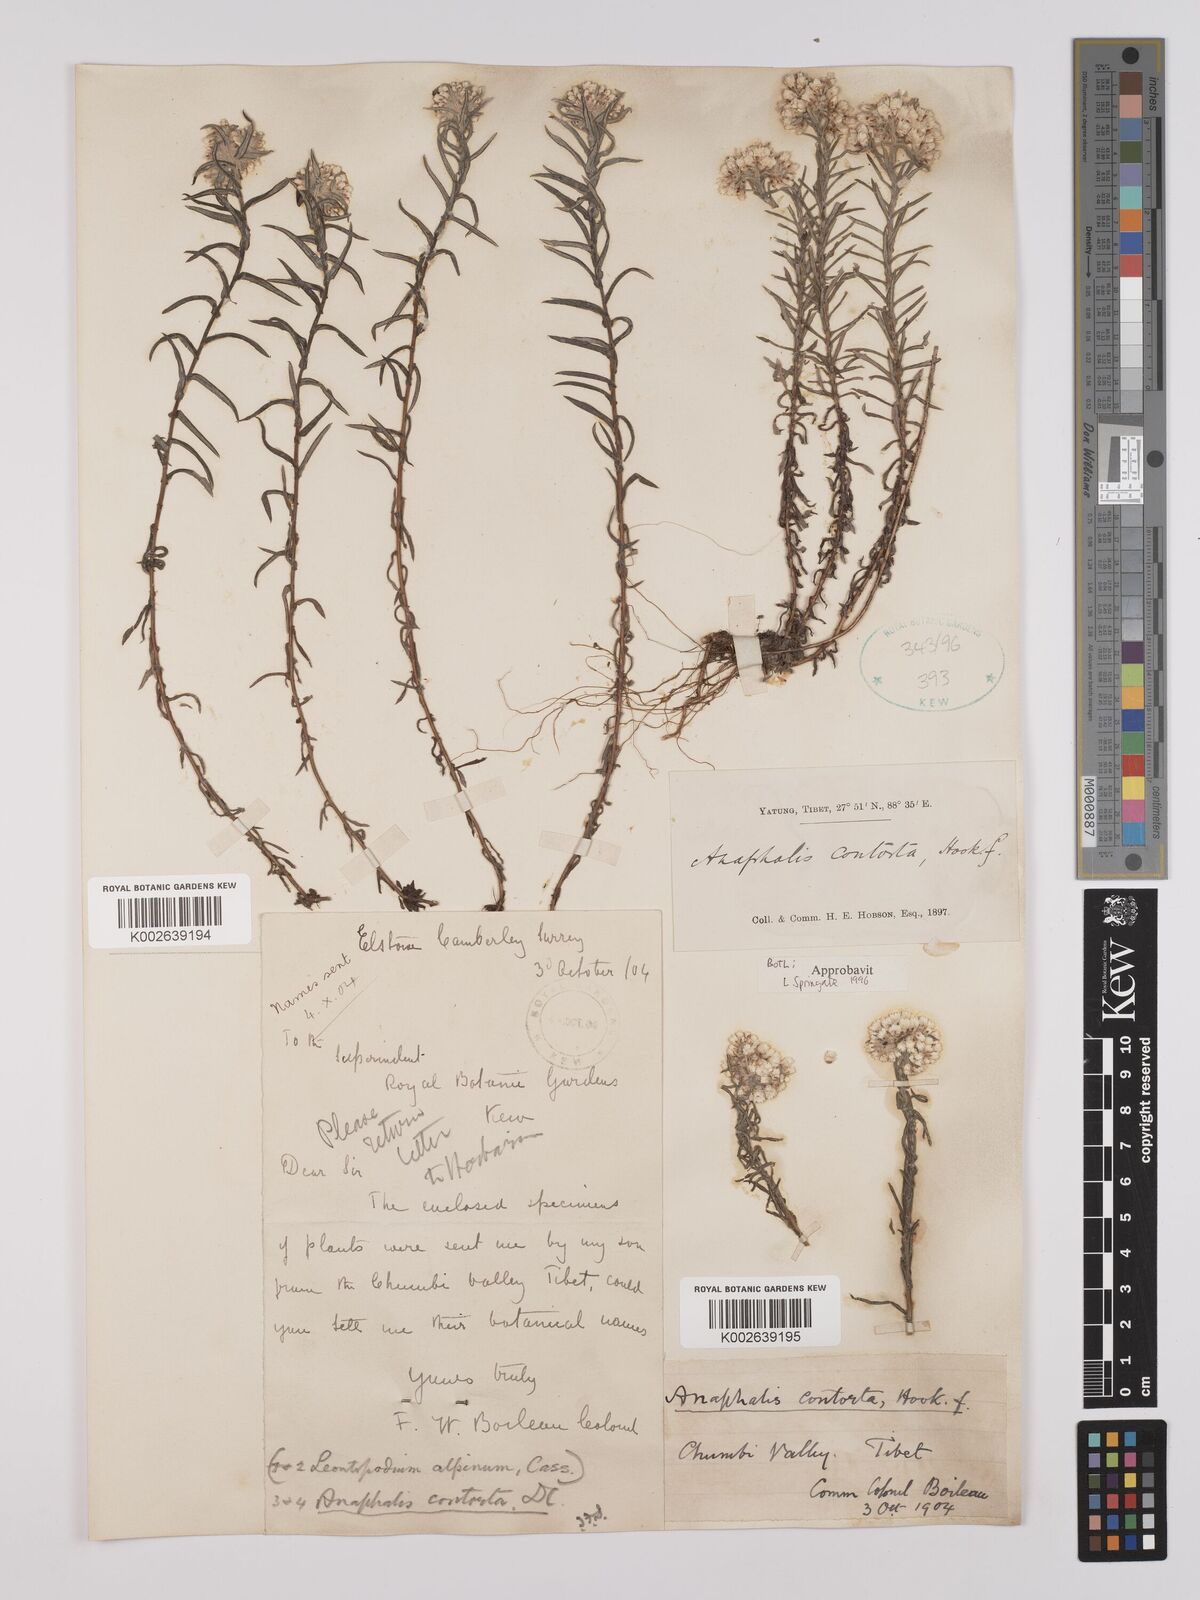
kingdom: Plantae
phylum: Tracheophyta
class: Magnoliopsida
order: Asterales
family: Asteraceae
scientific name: Asteraceae
